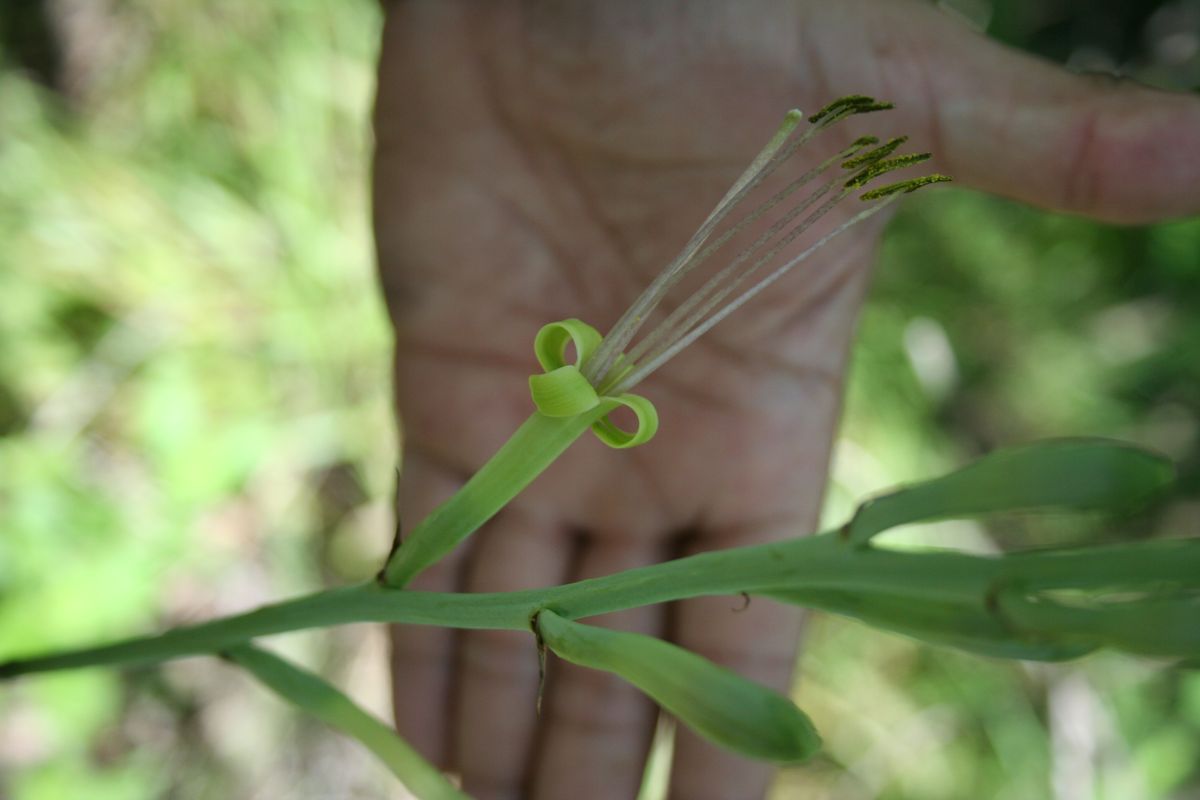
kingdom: Plantae
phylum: Tracheophyta
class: Liliopsida
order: Asparagales
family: Asparagaceae
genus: Agave
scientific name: Agave scabra
